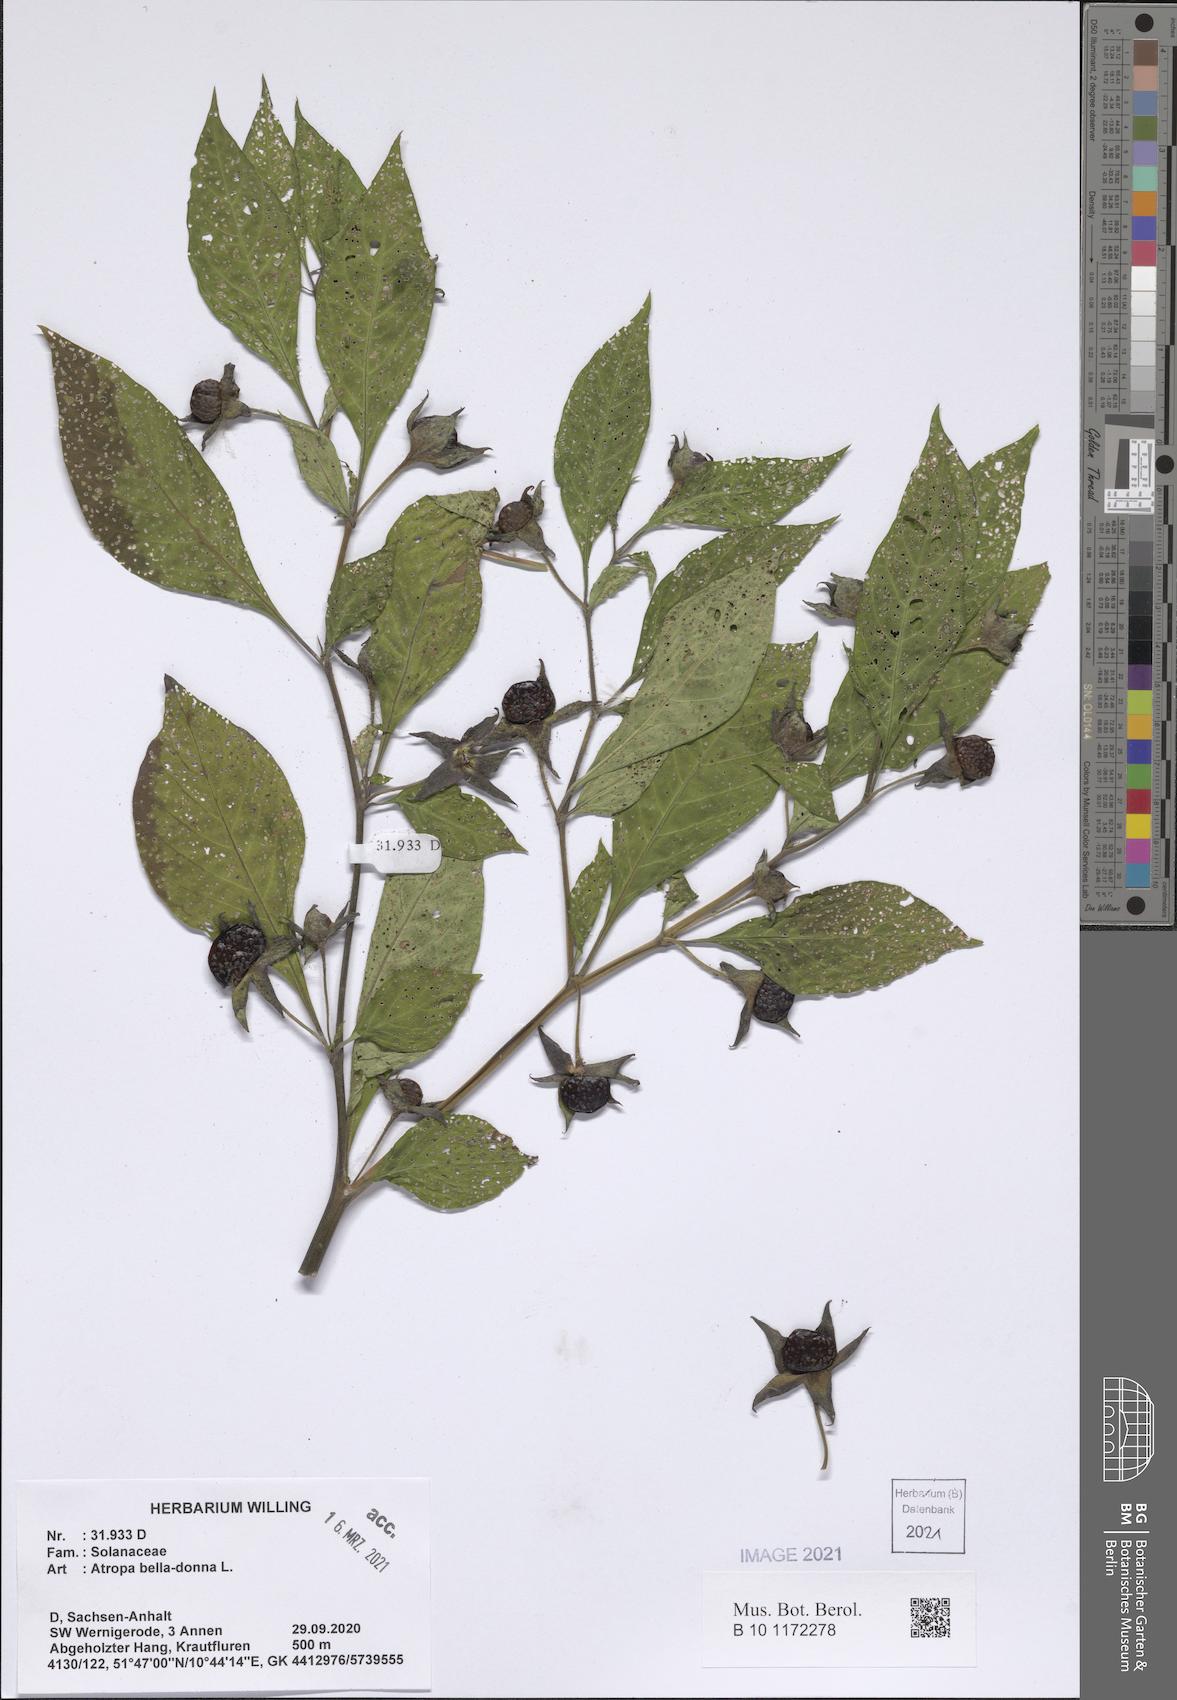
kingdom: Plantae
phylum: Tracheophyta
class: Magnoliopsida
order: Solanales
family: Solanaceae
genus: Atropa
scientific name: Atropa belladonna
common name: Deadly nightshade
